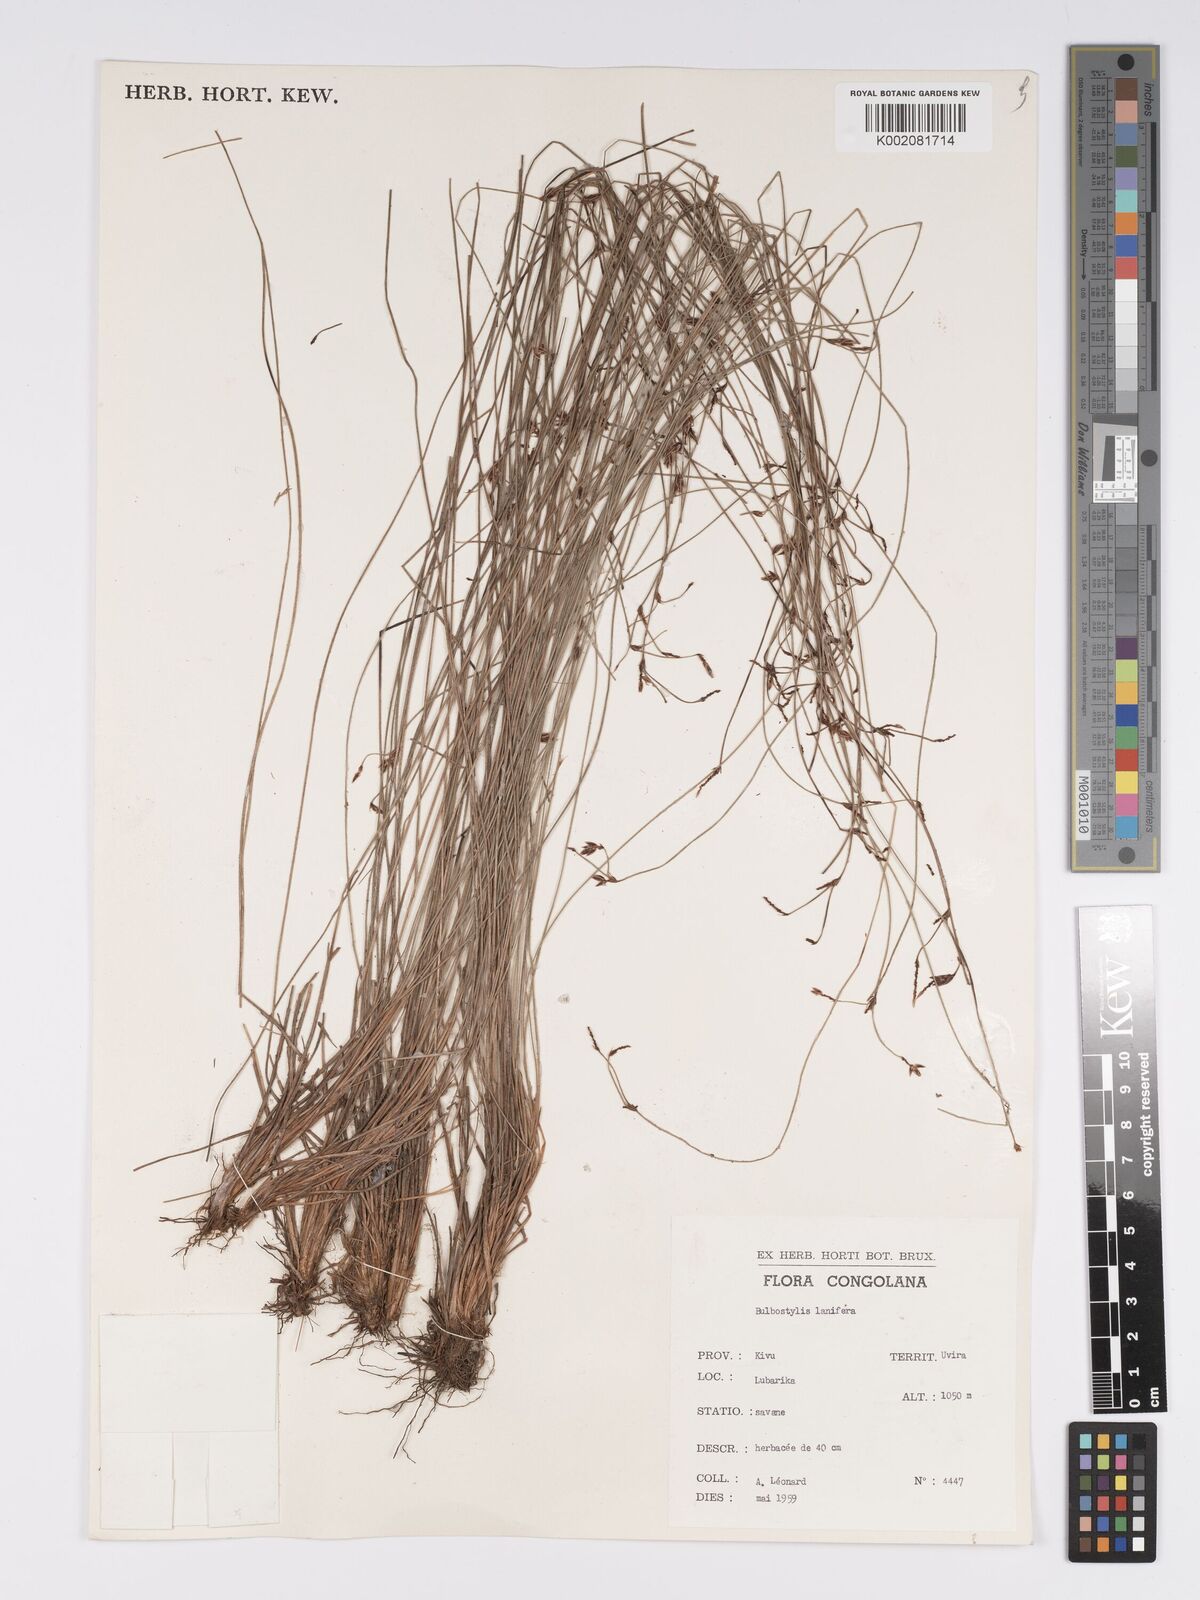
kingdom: Plantae
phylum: Tracheophyta
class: Liliopsida
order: Poales
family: Cyperaceae
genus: Bulbostylis
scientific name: Bulbostylis lanifera
